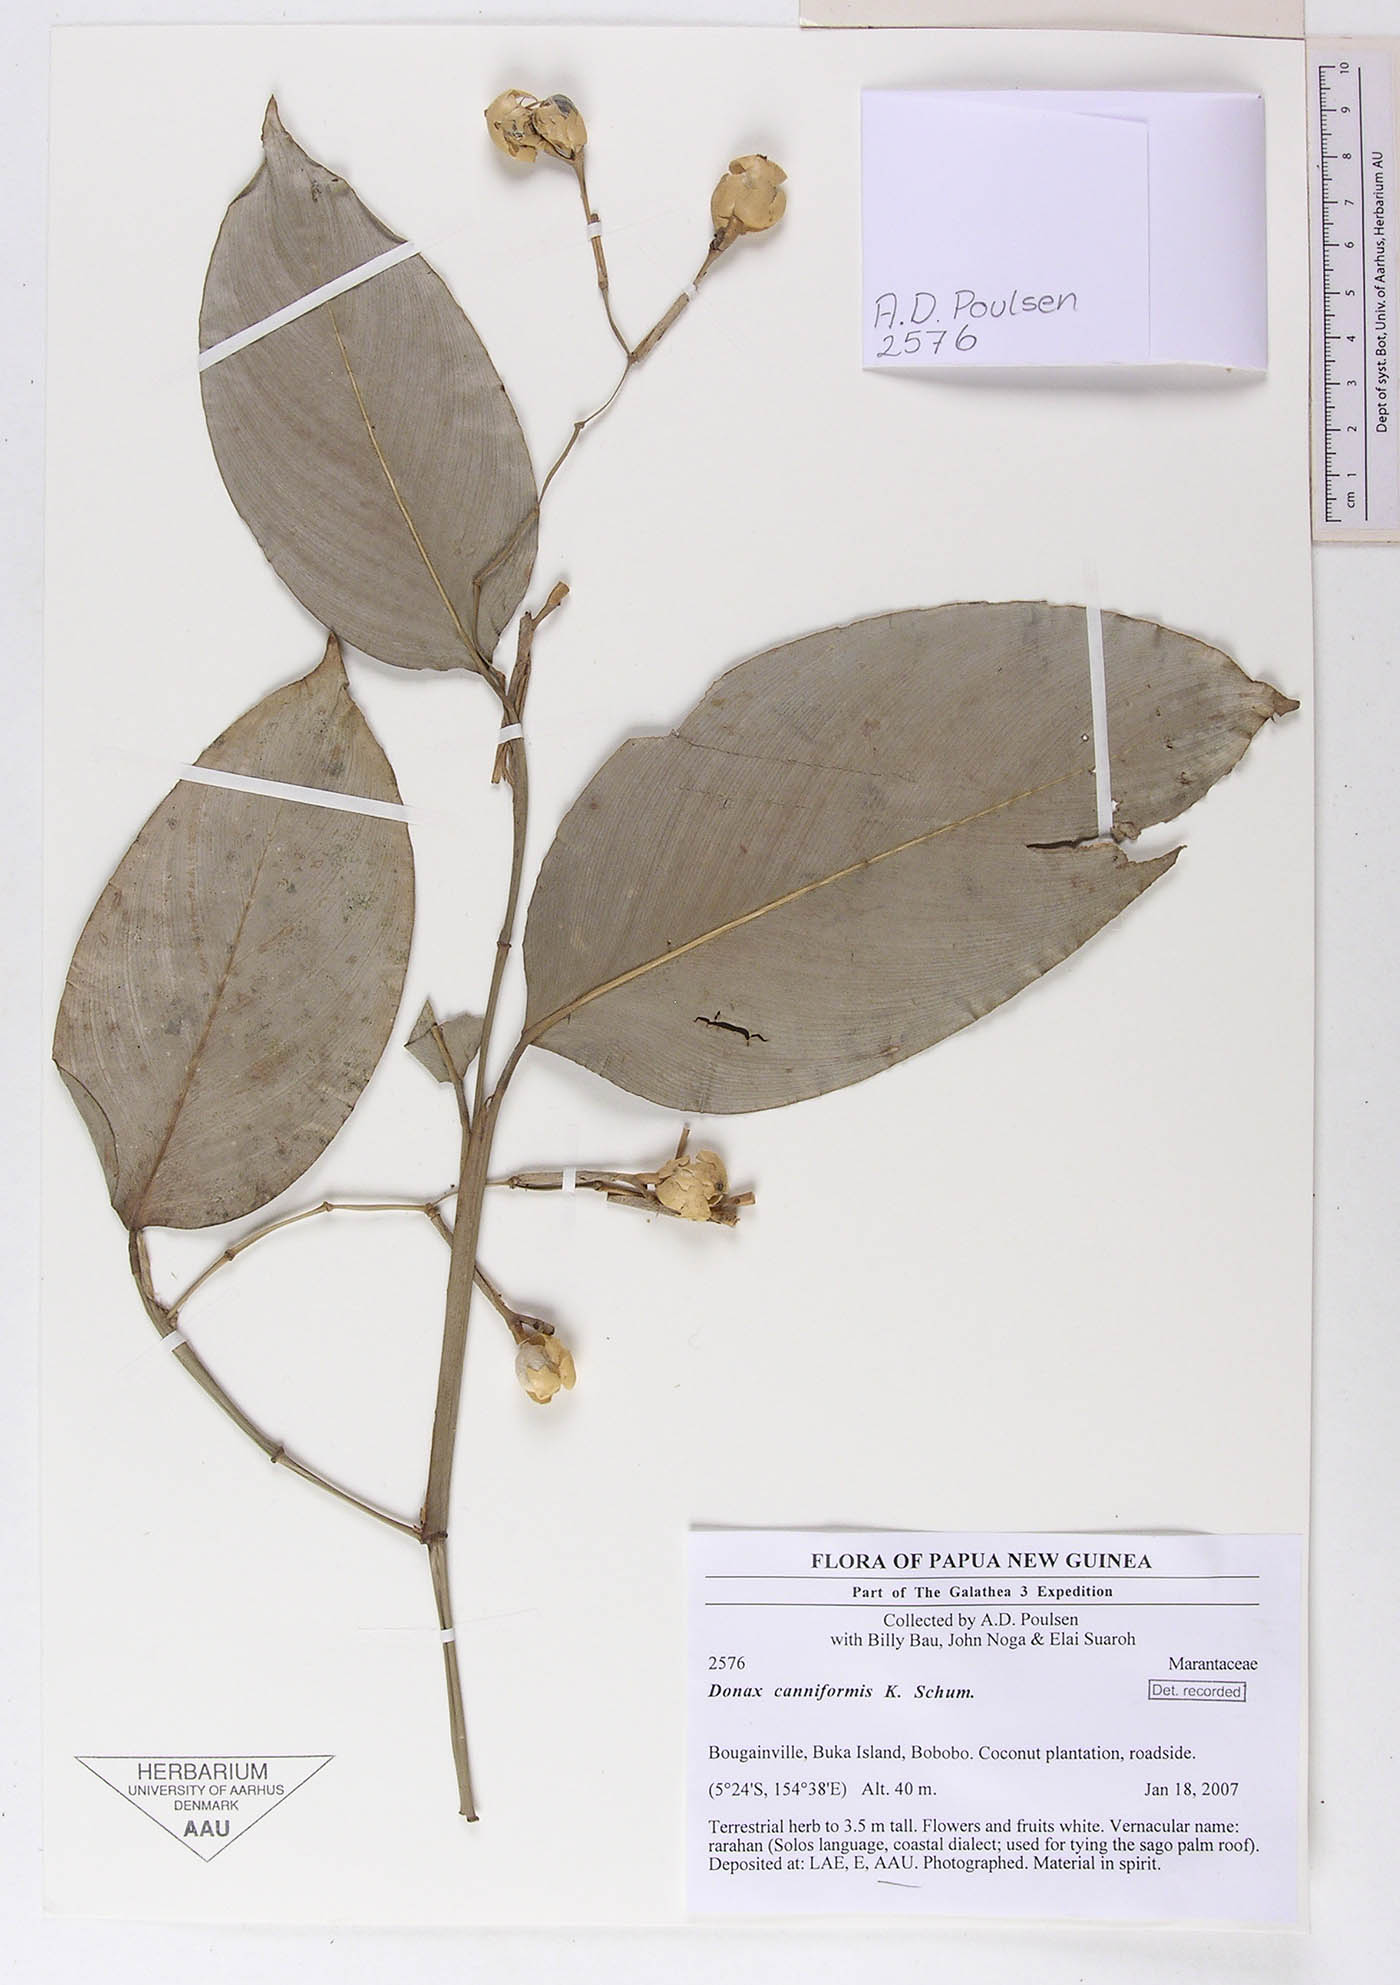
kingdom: Plantae
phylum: Tracheophyta
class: Liliopsida
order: Zingiberales
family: Marantaceae
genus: Donax
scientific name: Donax canniformis
